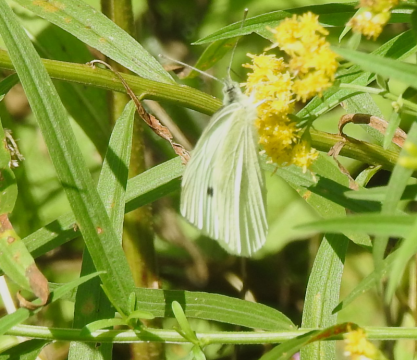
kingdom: Animalia
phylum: Arthropoda
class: Insecta
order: Lepidoptera
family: Pieridae
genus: Pieris
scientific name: Pieris rapae
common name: Cabbage White
